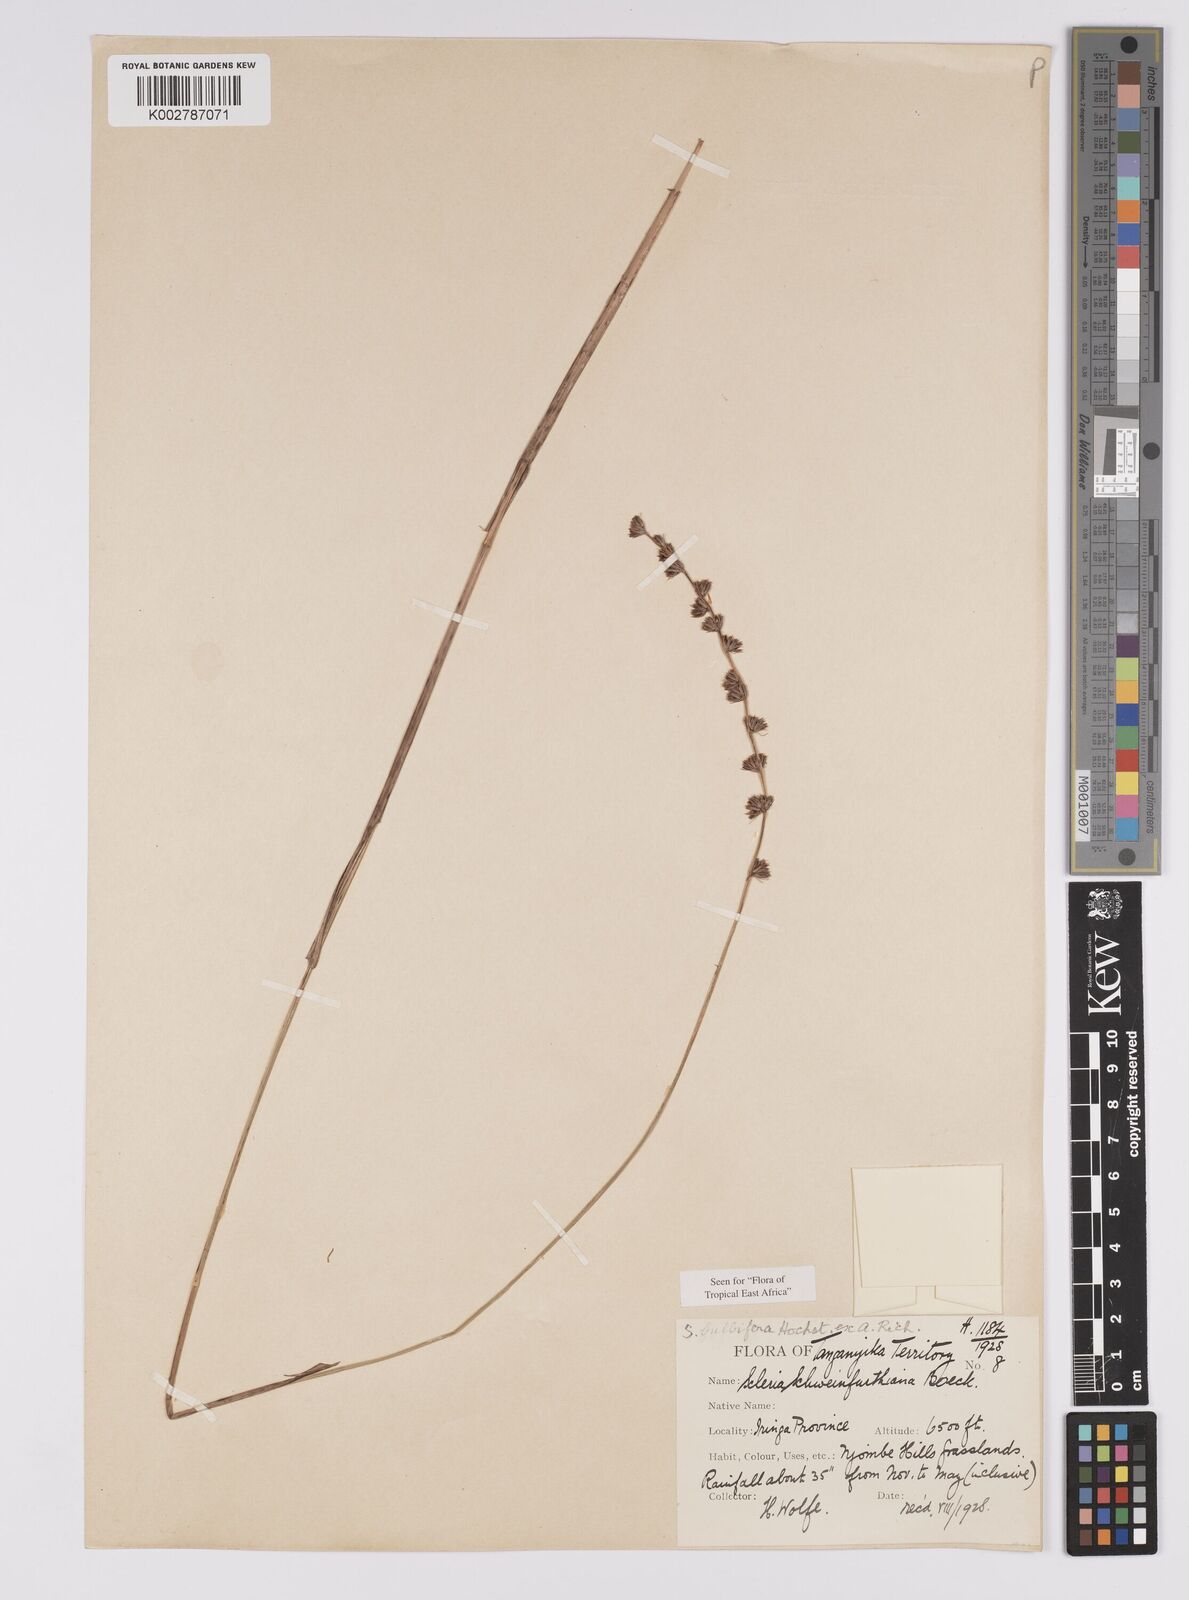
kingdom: Plantae
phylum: Tracheophyta
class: Liliopsida
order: Poales
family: Cyperaceae
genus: Scleria
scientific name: Scleria bulbifera
